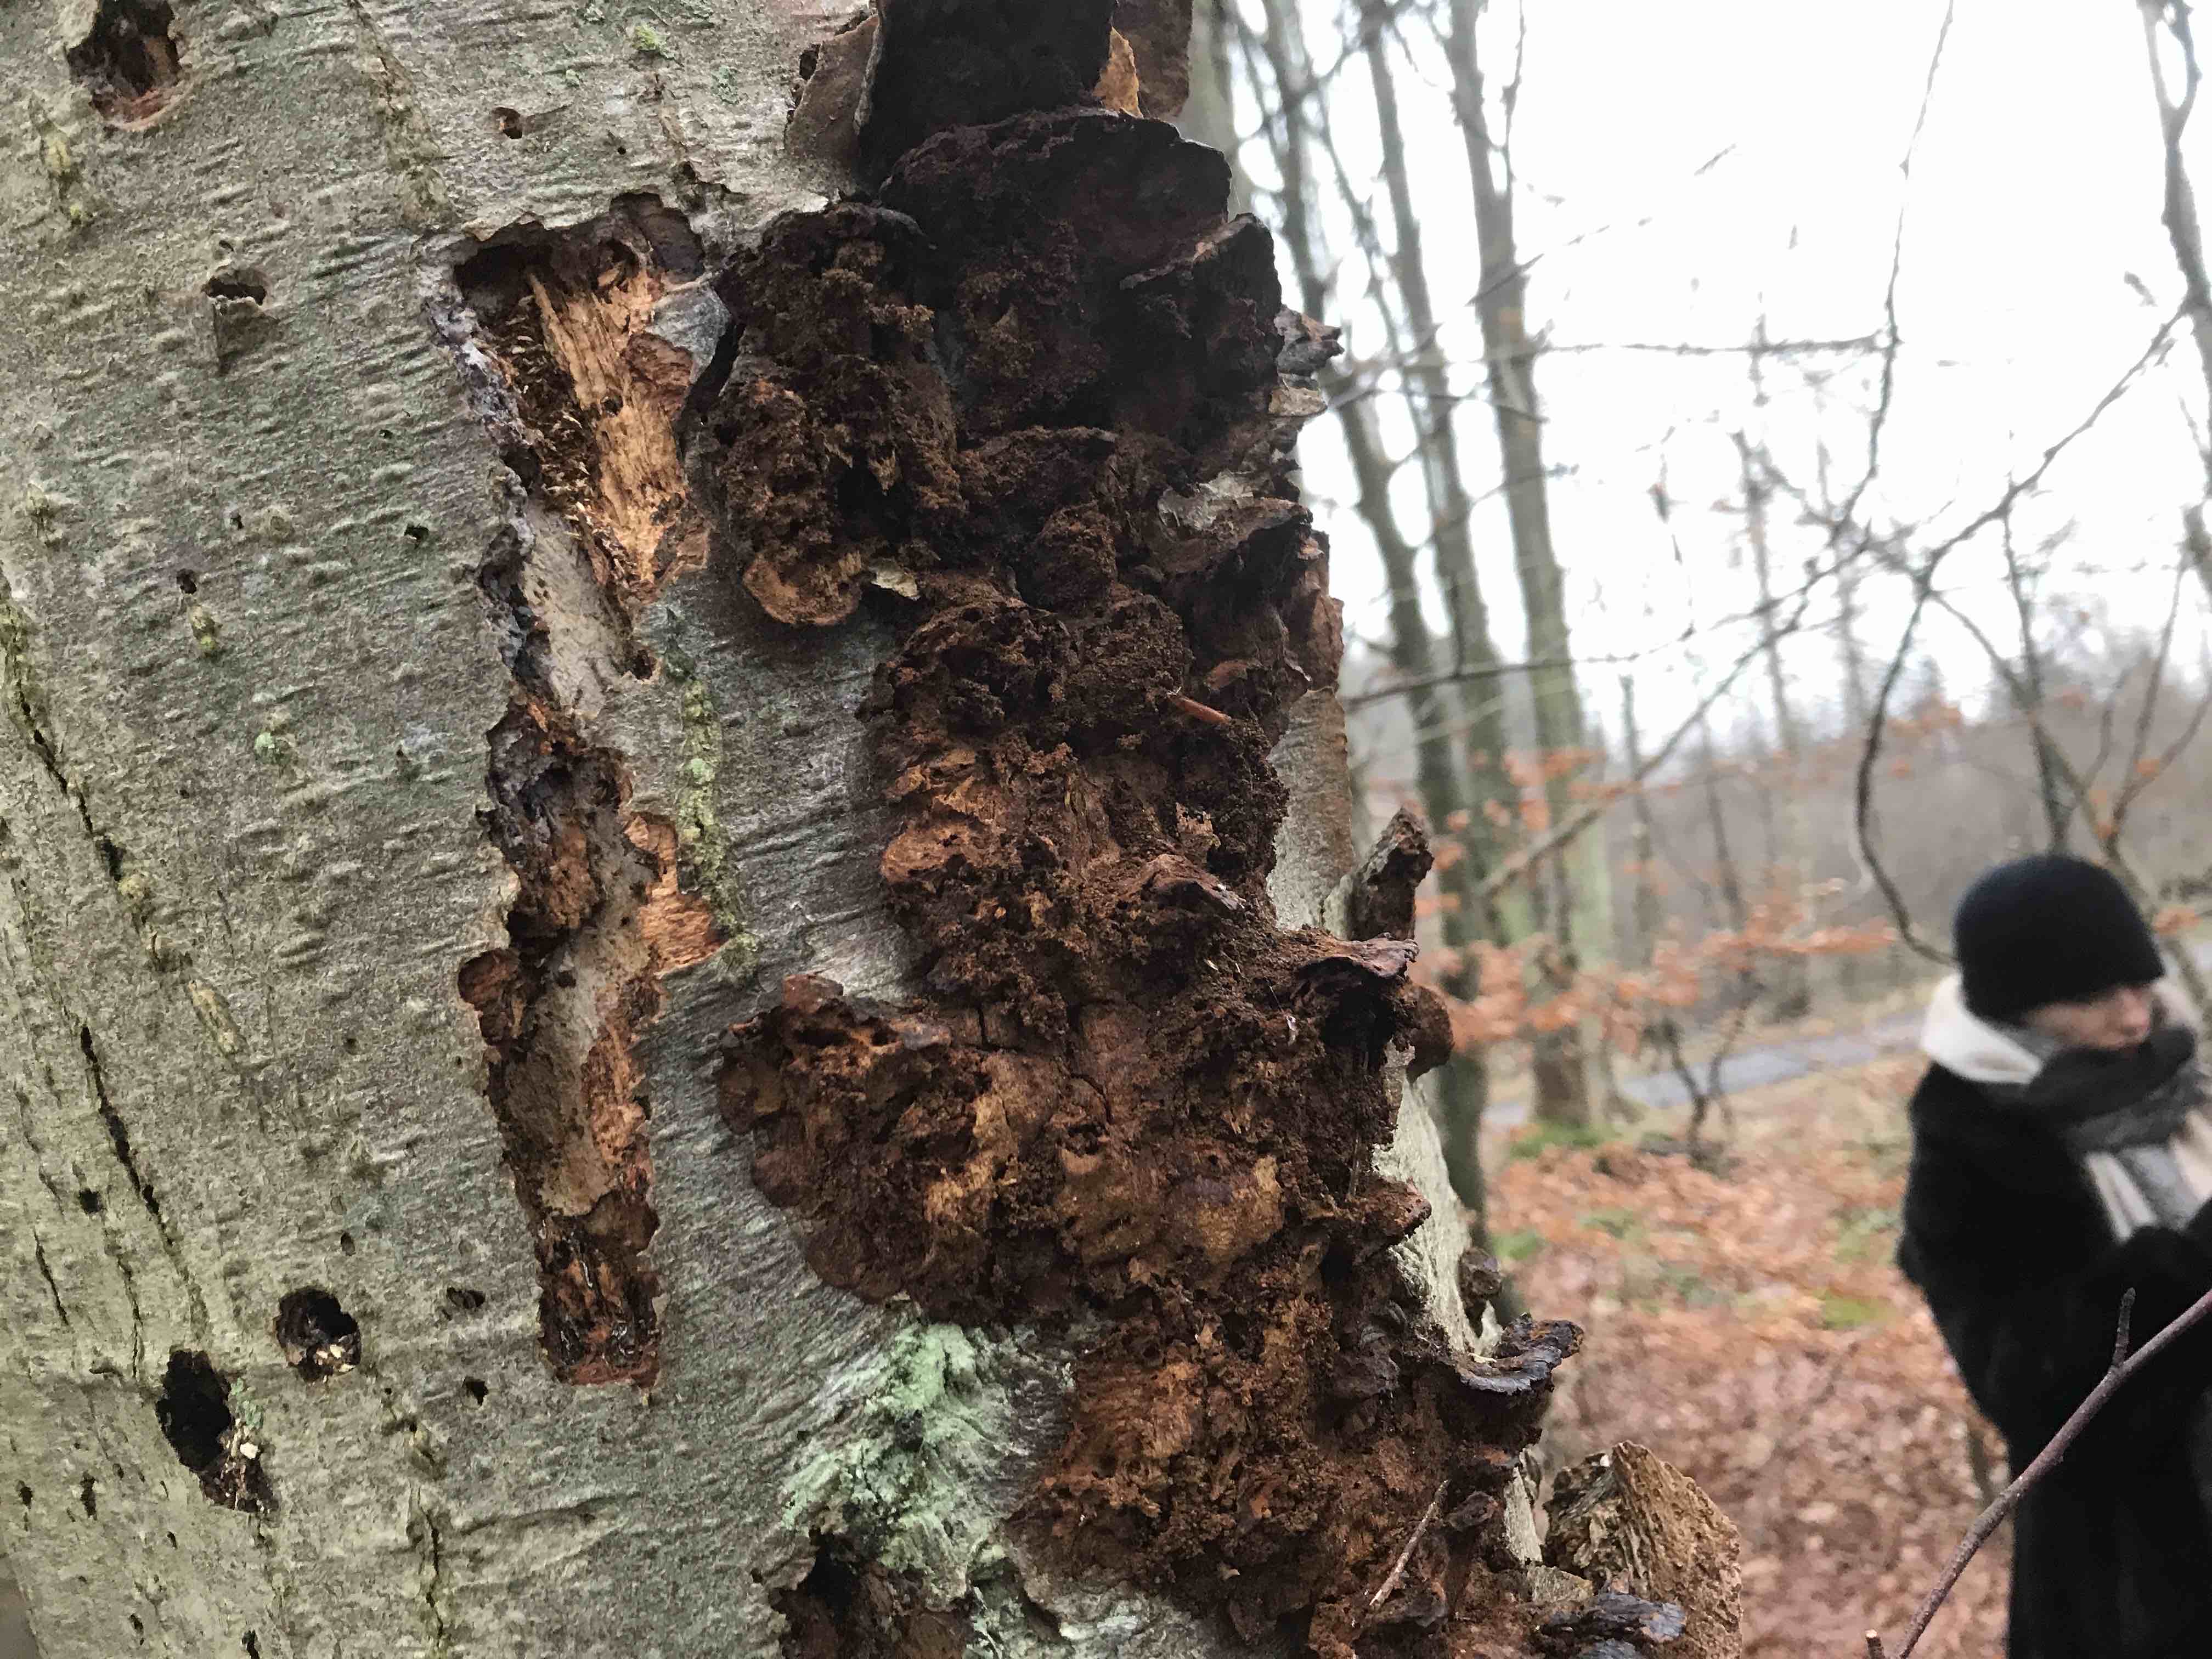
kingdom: Fungi
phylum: Basidiomycota
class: Agaricomycetes
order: Hymenochaetales
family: Hymenochaetaceae
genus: Xanthoporia
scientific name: Xanthoporia radiata
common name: elle-spejlporesvamp
